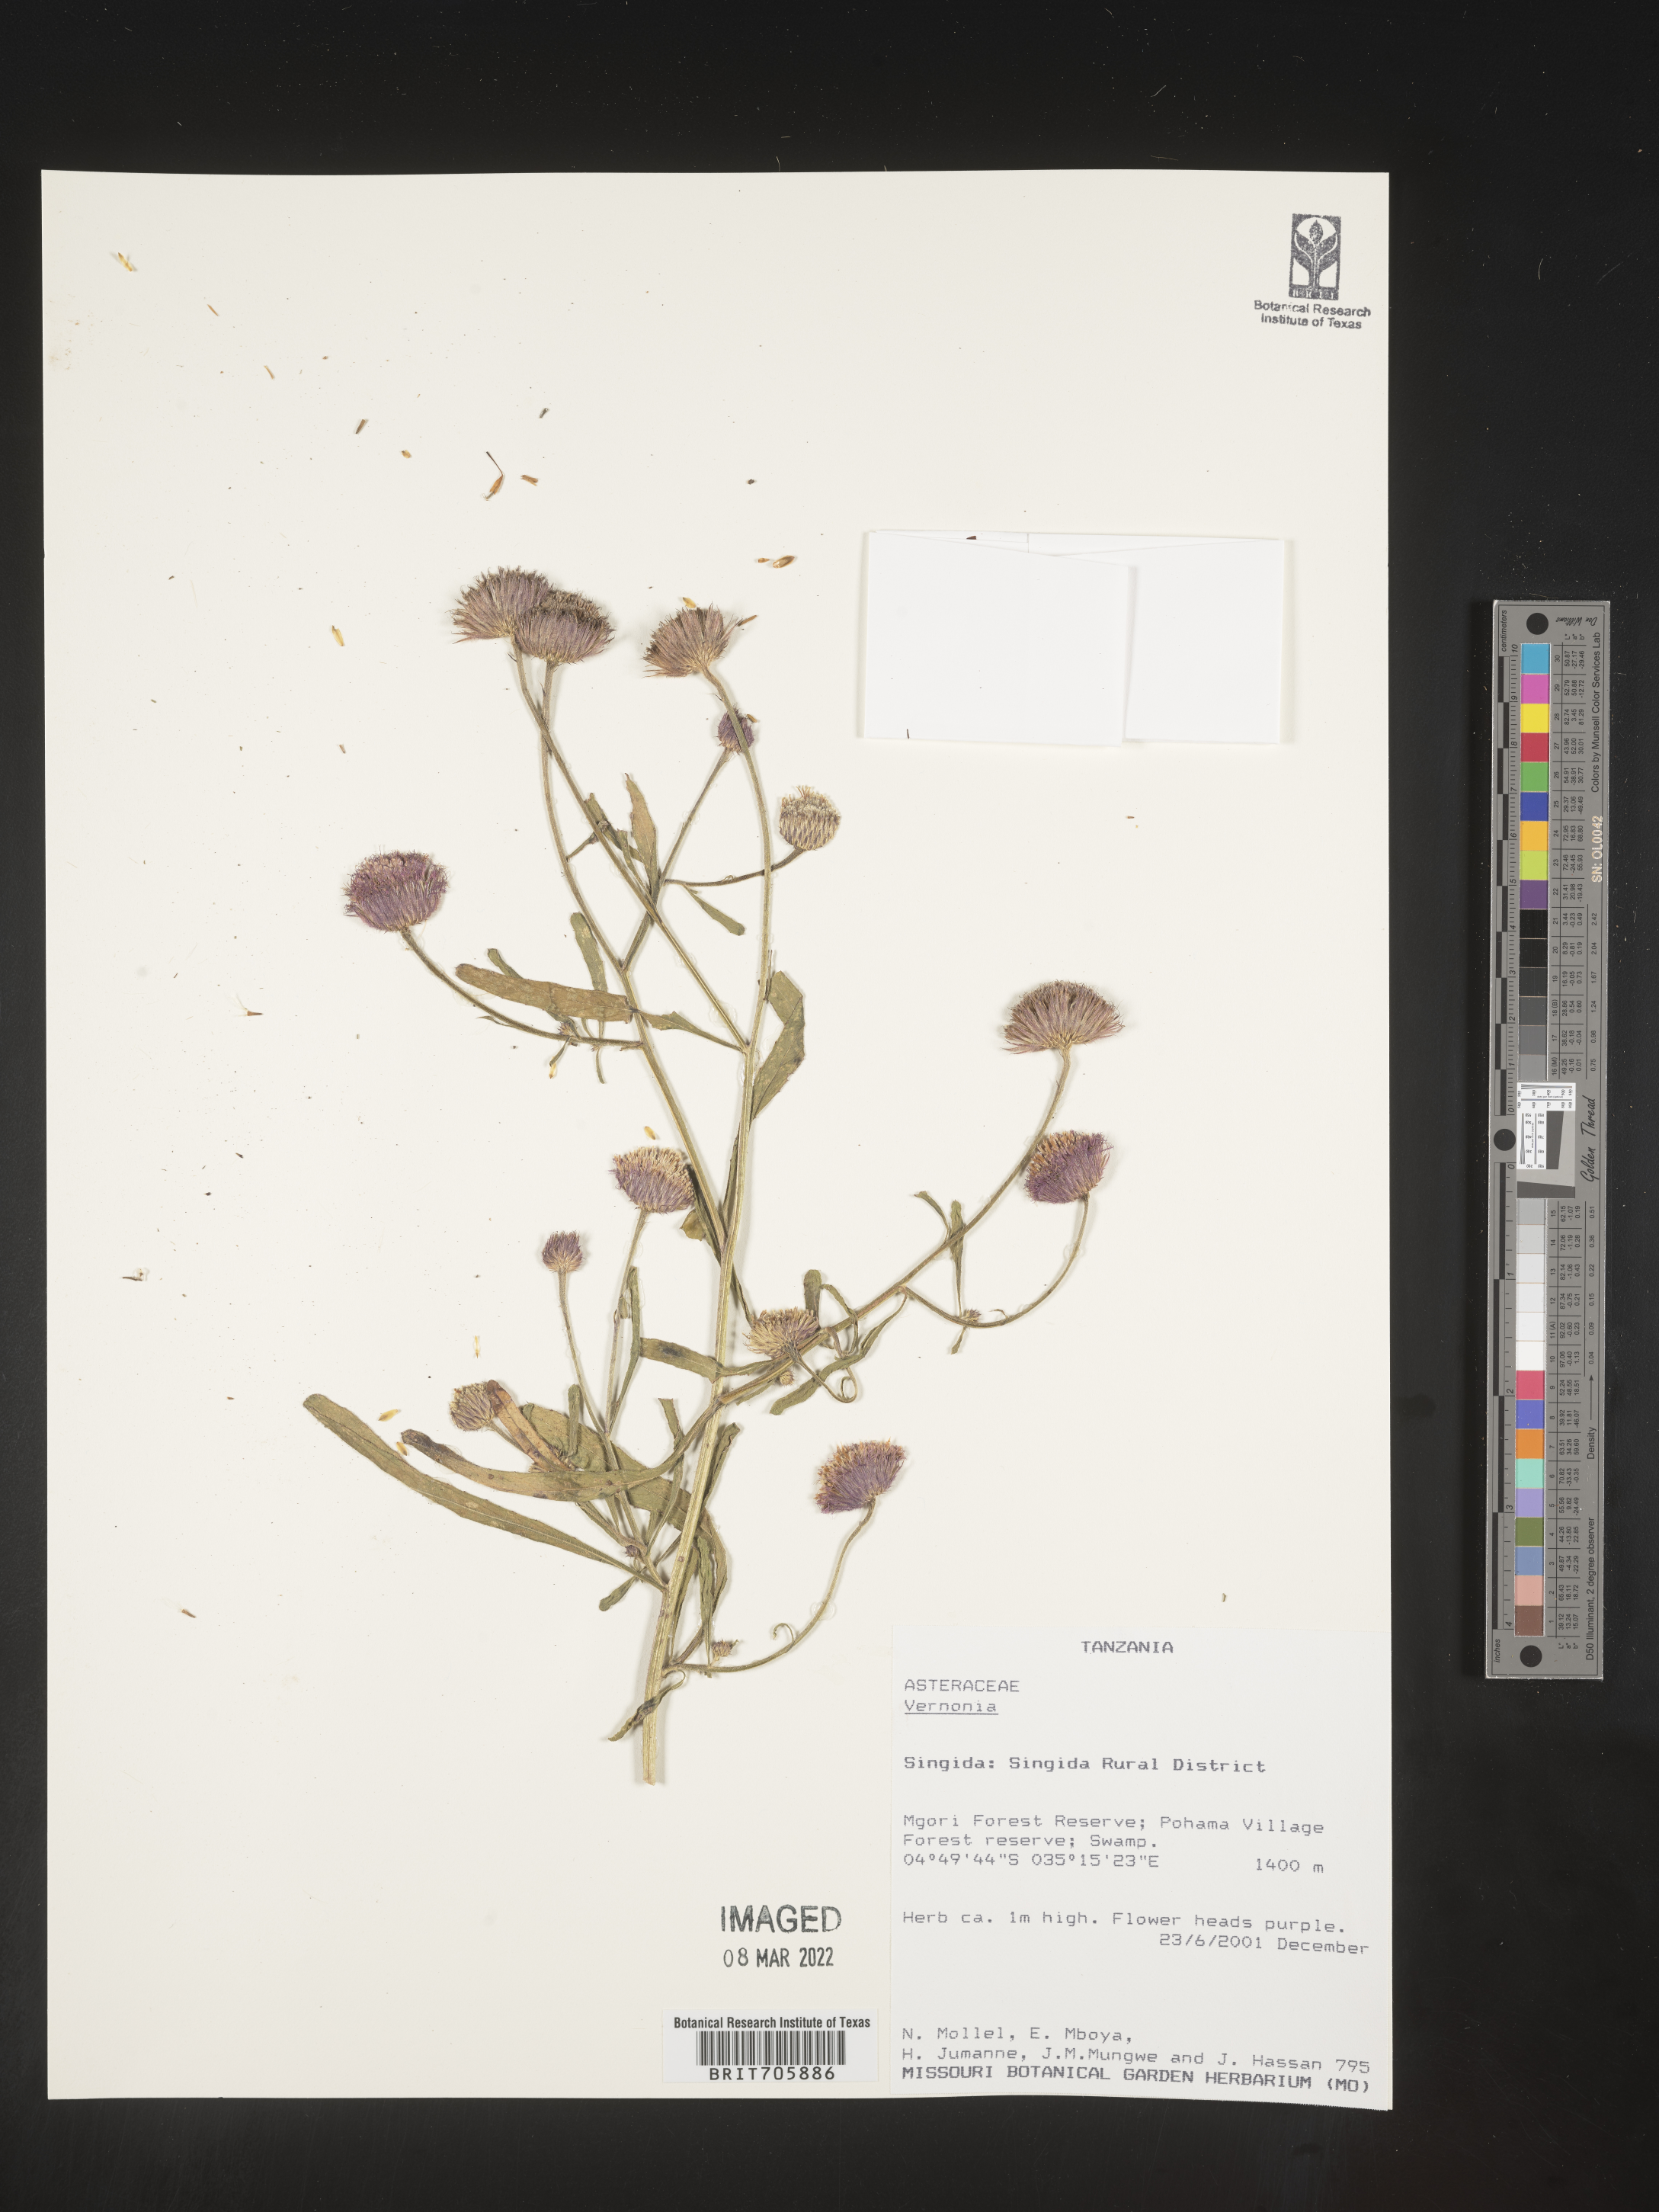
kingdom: Plantae
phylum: Tracheophyta
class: Magnoliopsida
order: Asterales
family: Asteraceae
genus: Vernonia
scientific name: Vernonia
